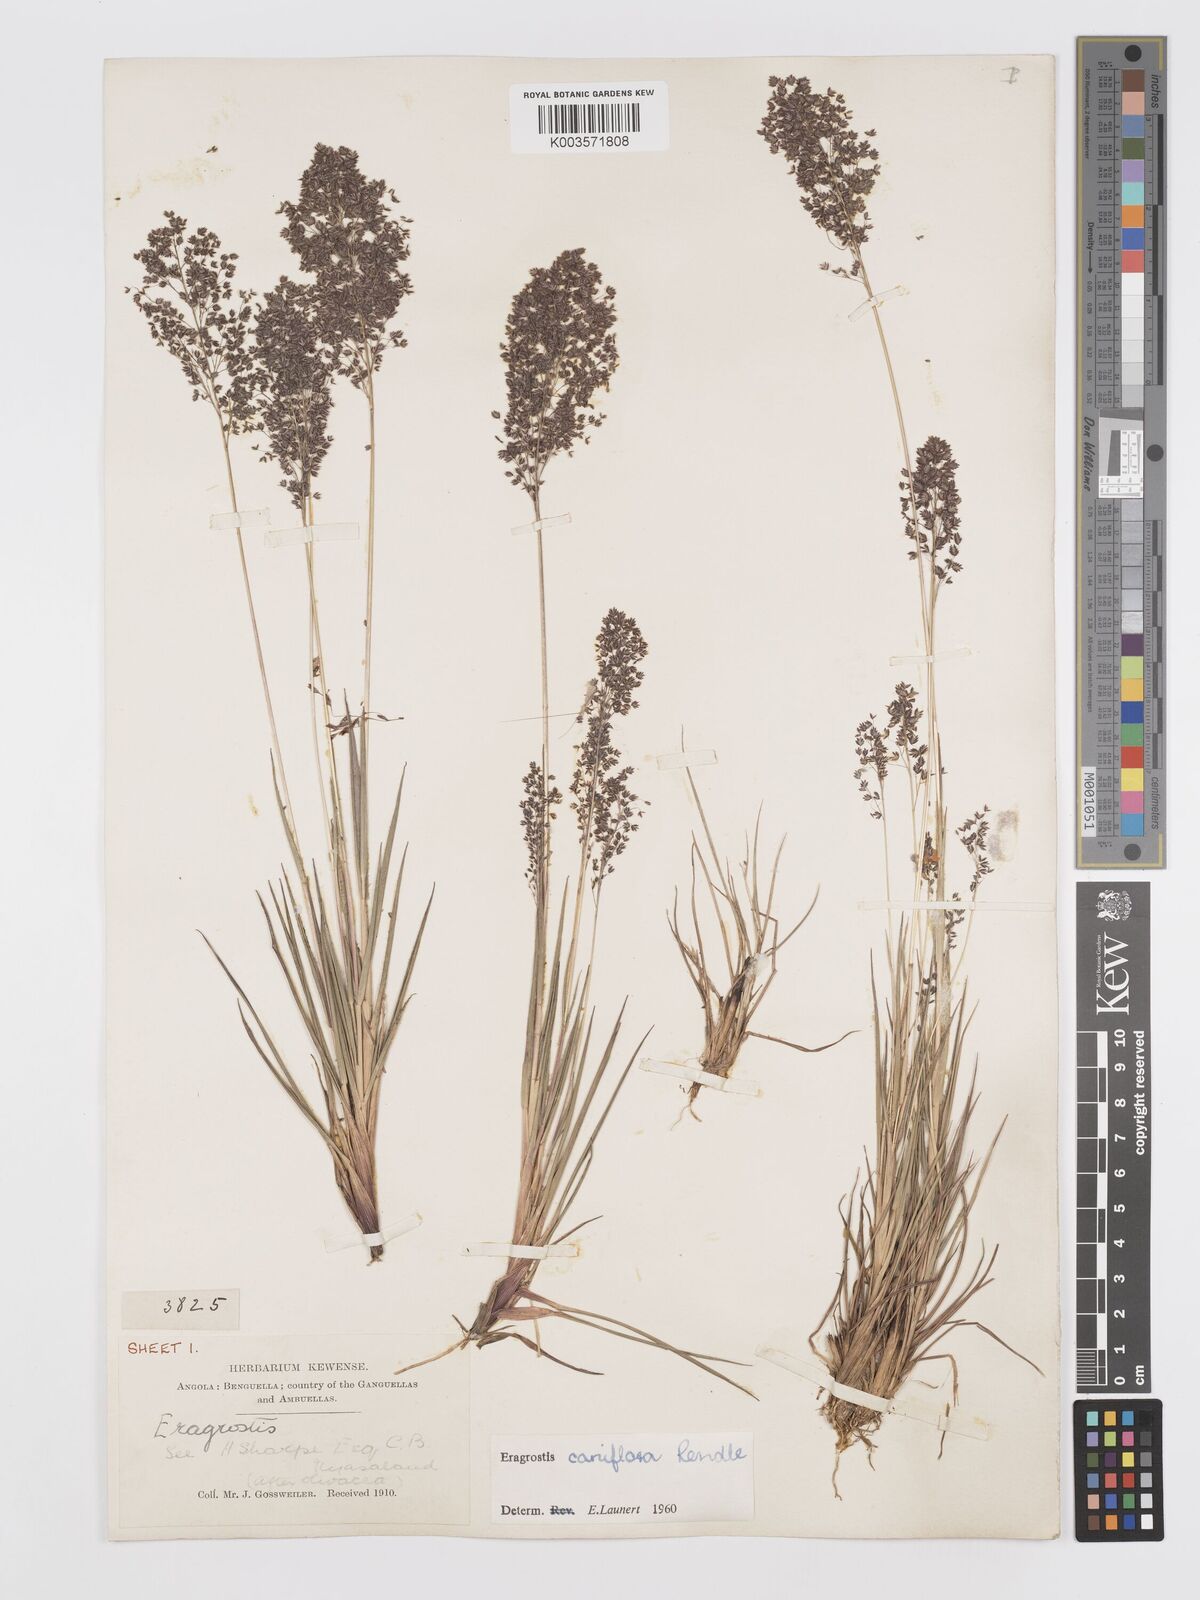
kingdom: Plantae
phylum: Tracheophyta
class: Liliopsida
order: Poales
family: Poaceae
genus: Eragrostis
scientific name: Eragrostis caniflora
